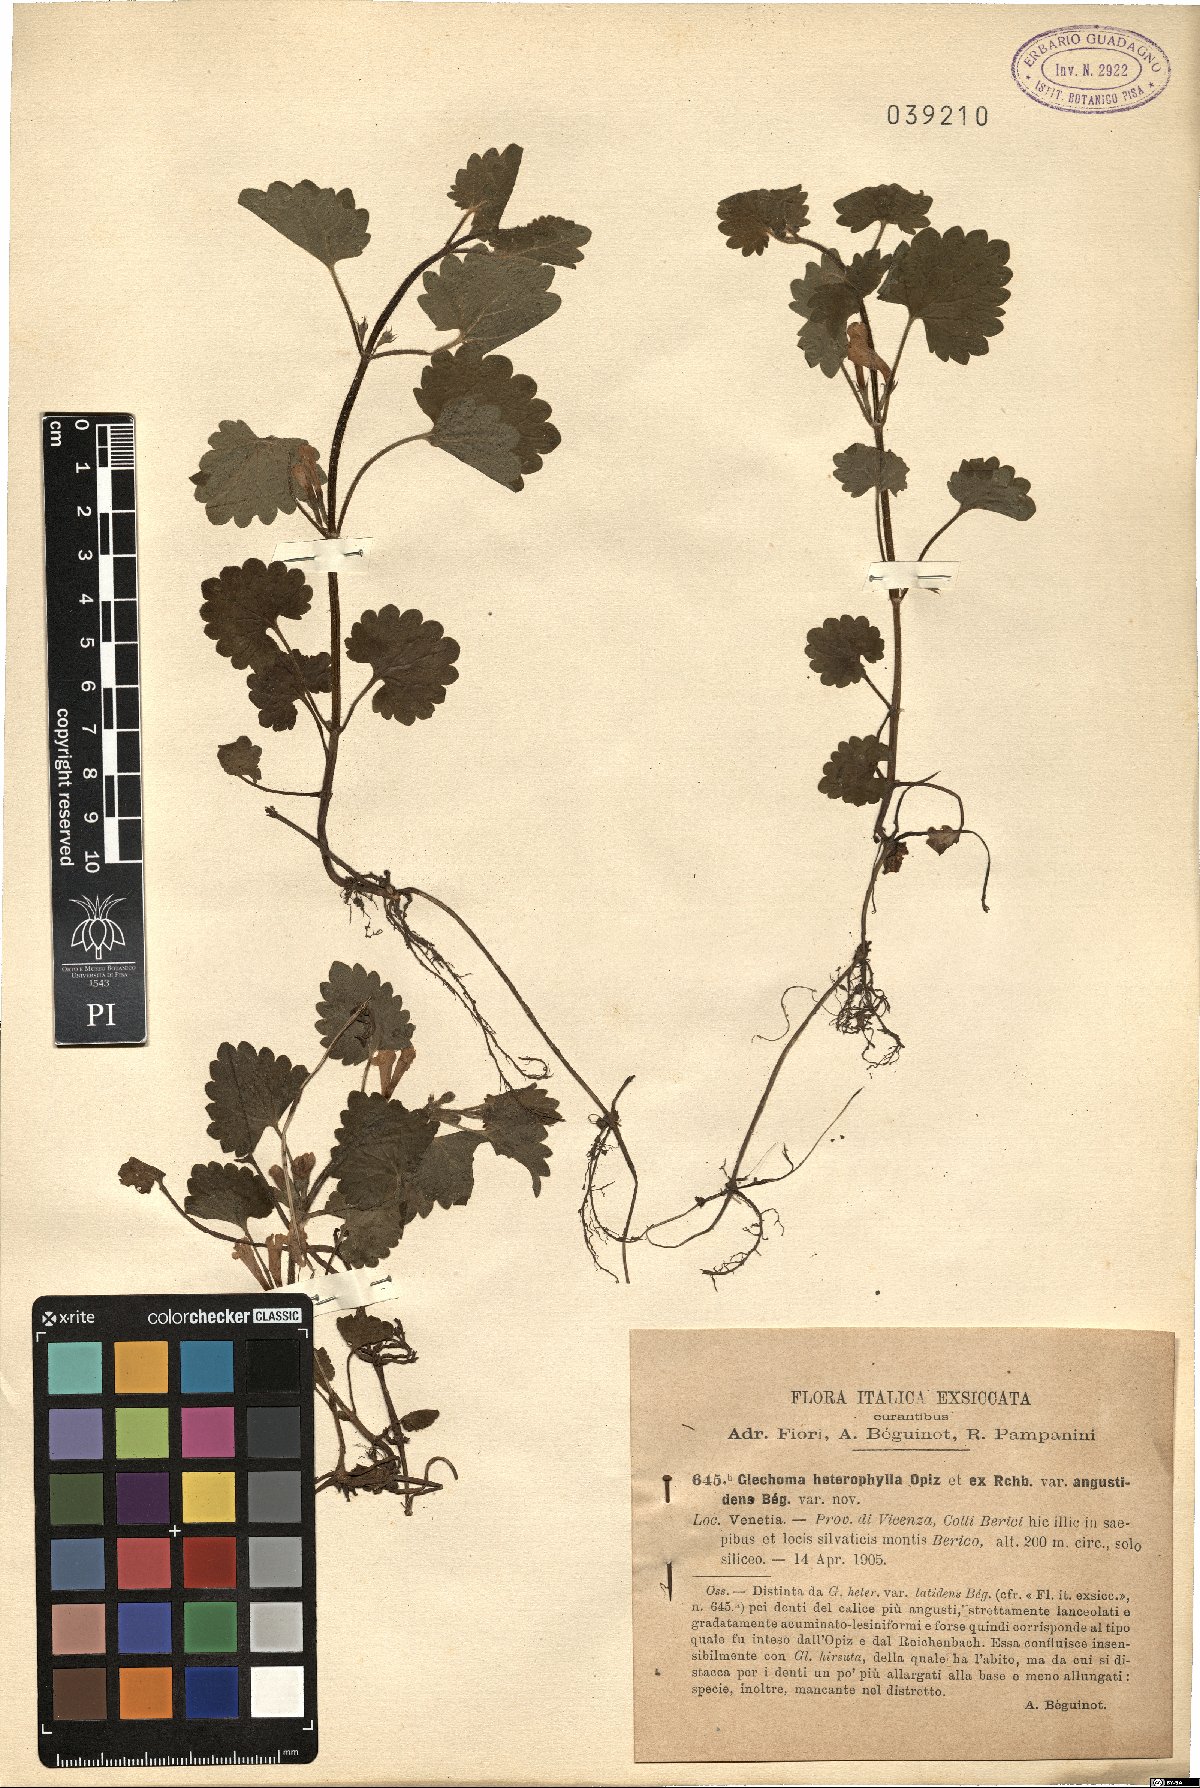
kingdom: Plantae
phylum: Tracheophyta
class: Magnoliopsida
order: Lamiales
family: Lamiaceae
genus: Glechoma
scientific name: Glechoma hederacea
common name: Ground ivy
